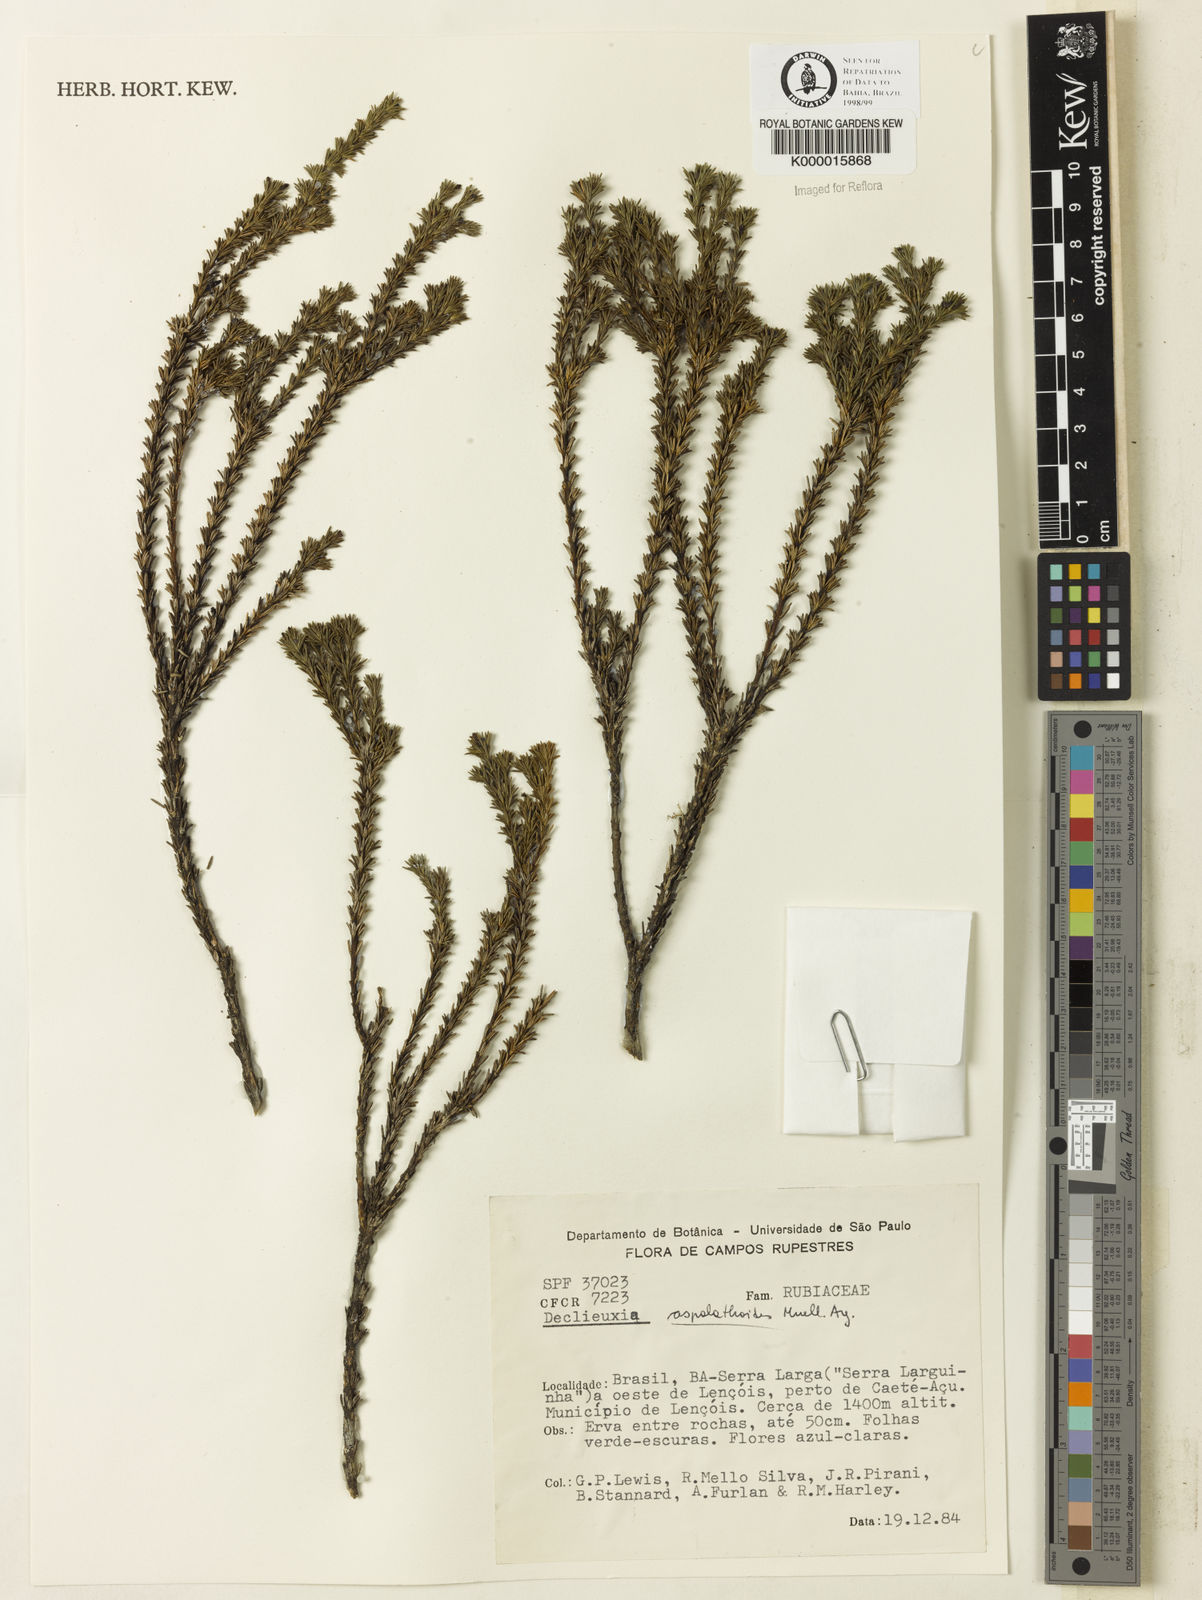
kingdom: Plantae
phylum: Tracheophyta
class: Magnoliopsida
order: Gentianales
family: Rubiaceae
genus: Declieuxia
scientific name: Declieuxia aspalathoides
